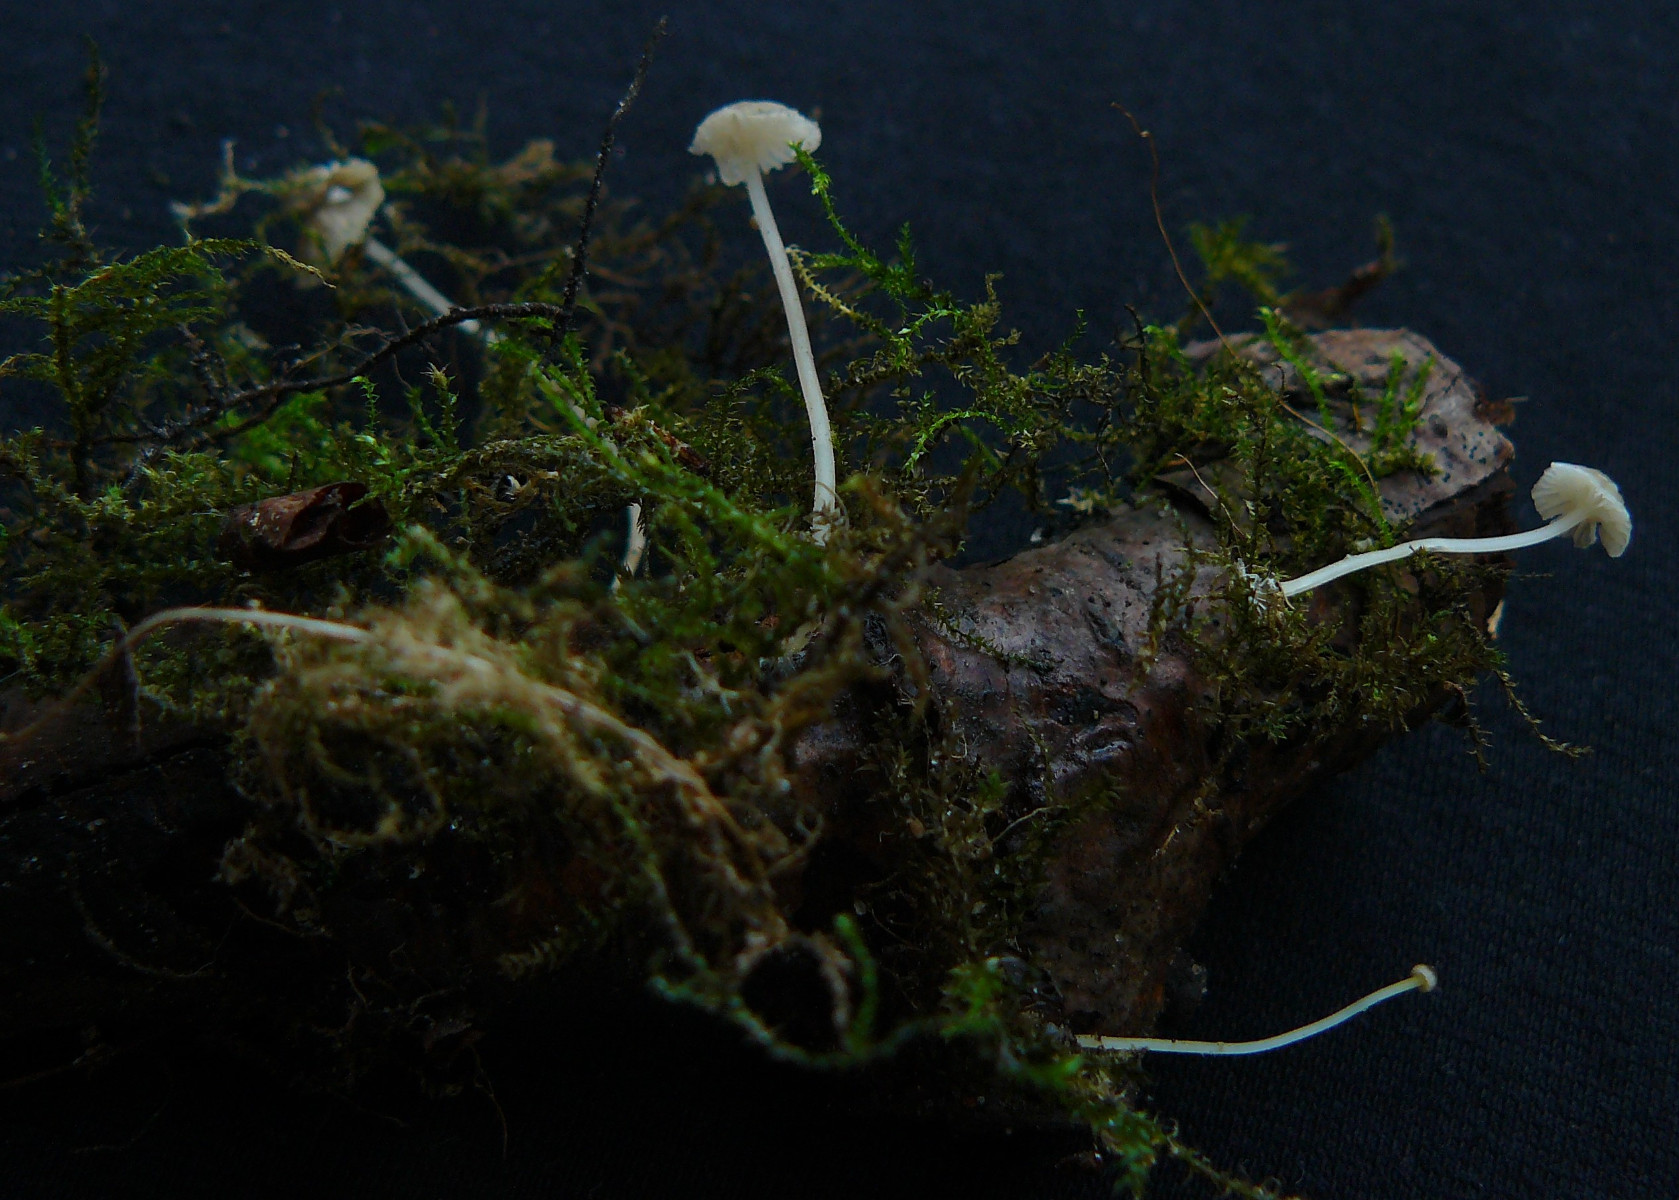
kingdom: Fungi
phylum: Basidiomycota
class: Agaricomycetes
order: Agaricales
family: Porotheleaceae
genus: Phloeomana
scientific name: Phloeomana speirea
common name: kvist-huesvamp
